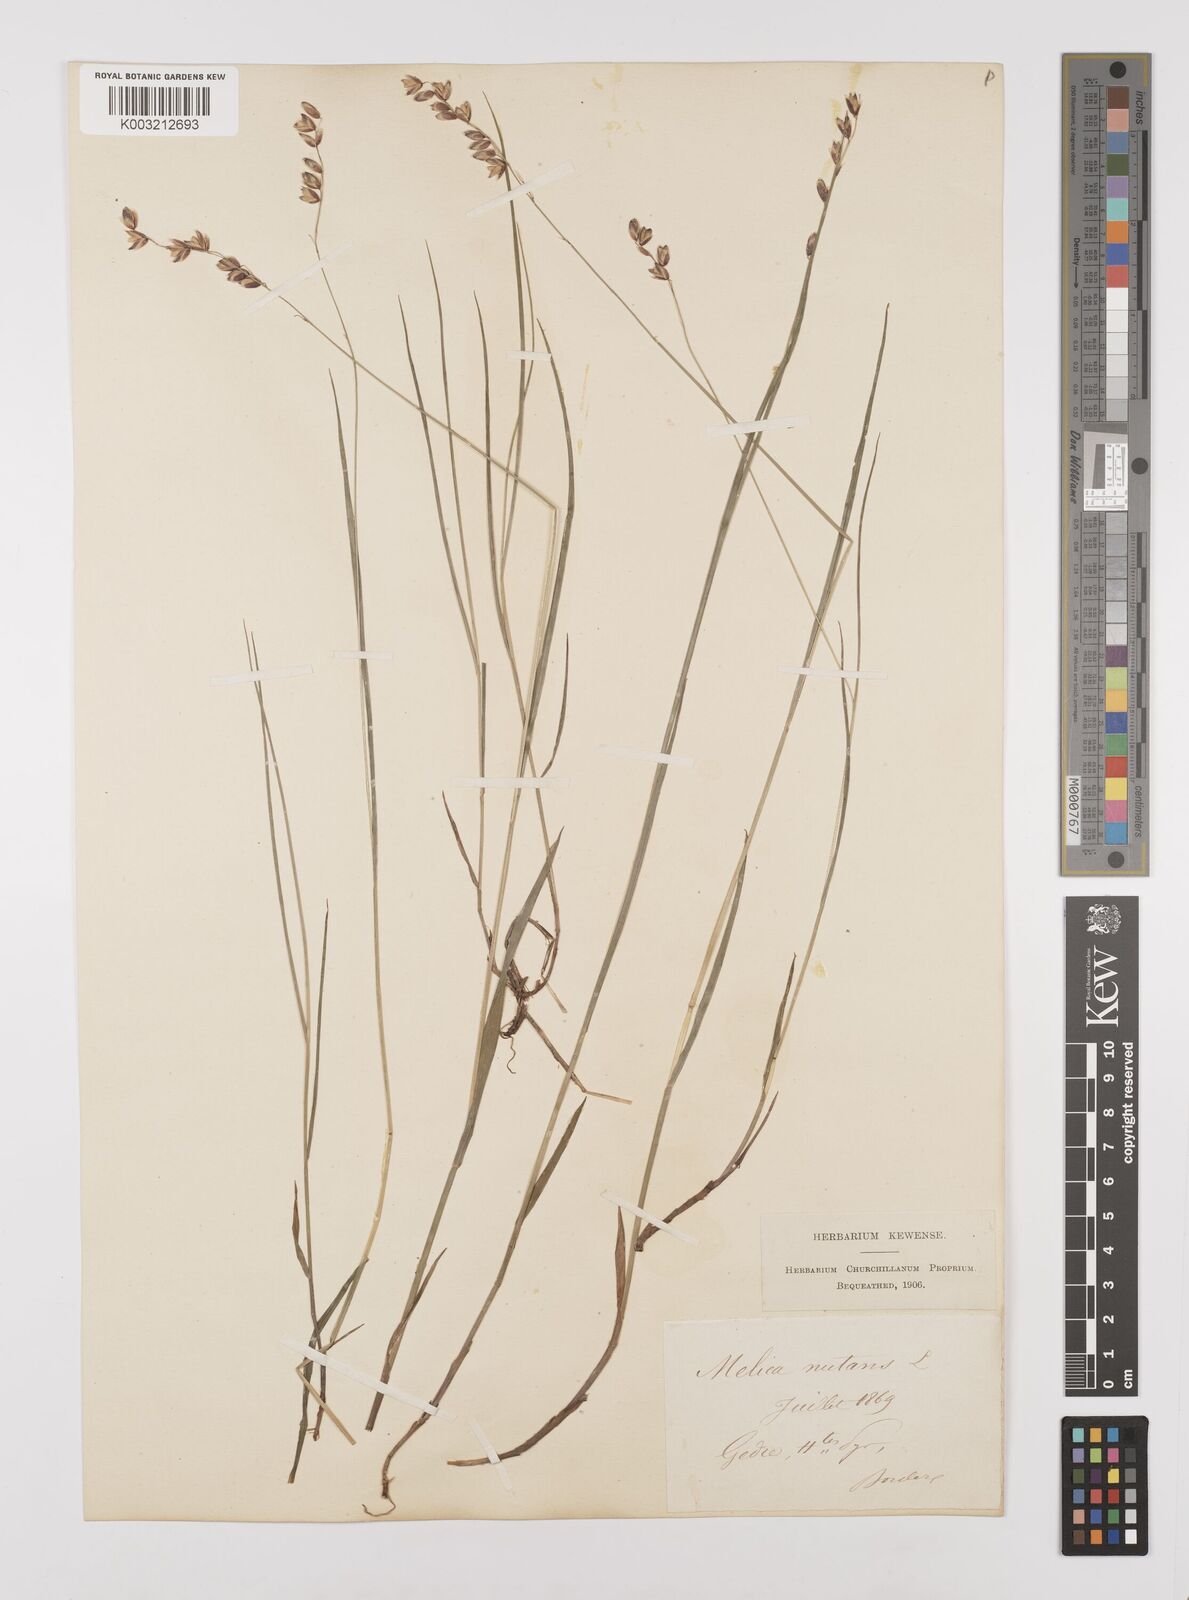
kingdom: Plantae
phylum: Tracheophyta
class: Liliopsida
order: Poales
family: Poaceae
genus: Melica
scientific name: Melica nutans
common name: Mountain melick
